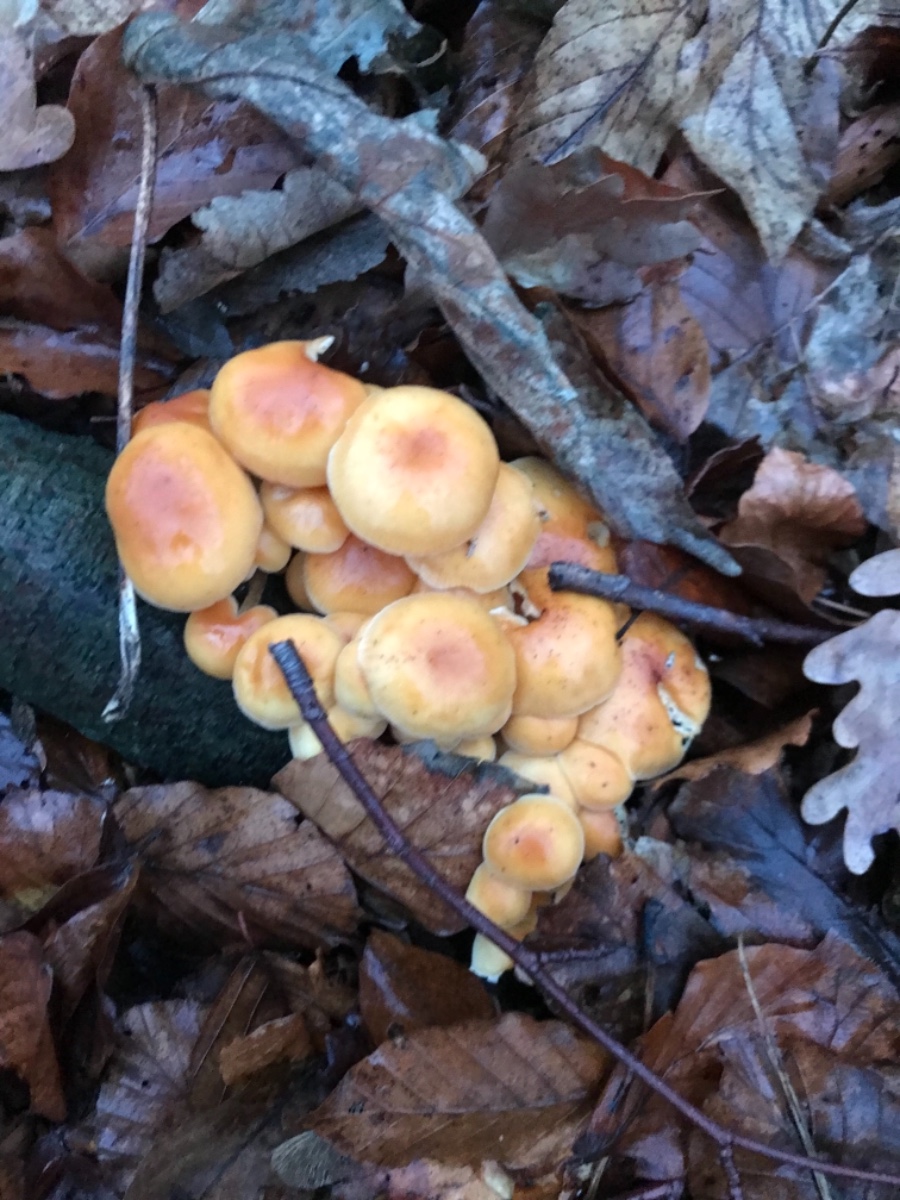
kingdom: Fungi
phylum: Basidiomycota
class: Agaricomycetes
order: Agaricales
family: Strophariaceae
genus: Hypholoma
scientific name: Hypholoma fasciculare
